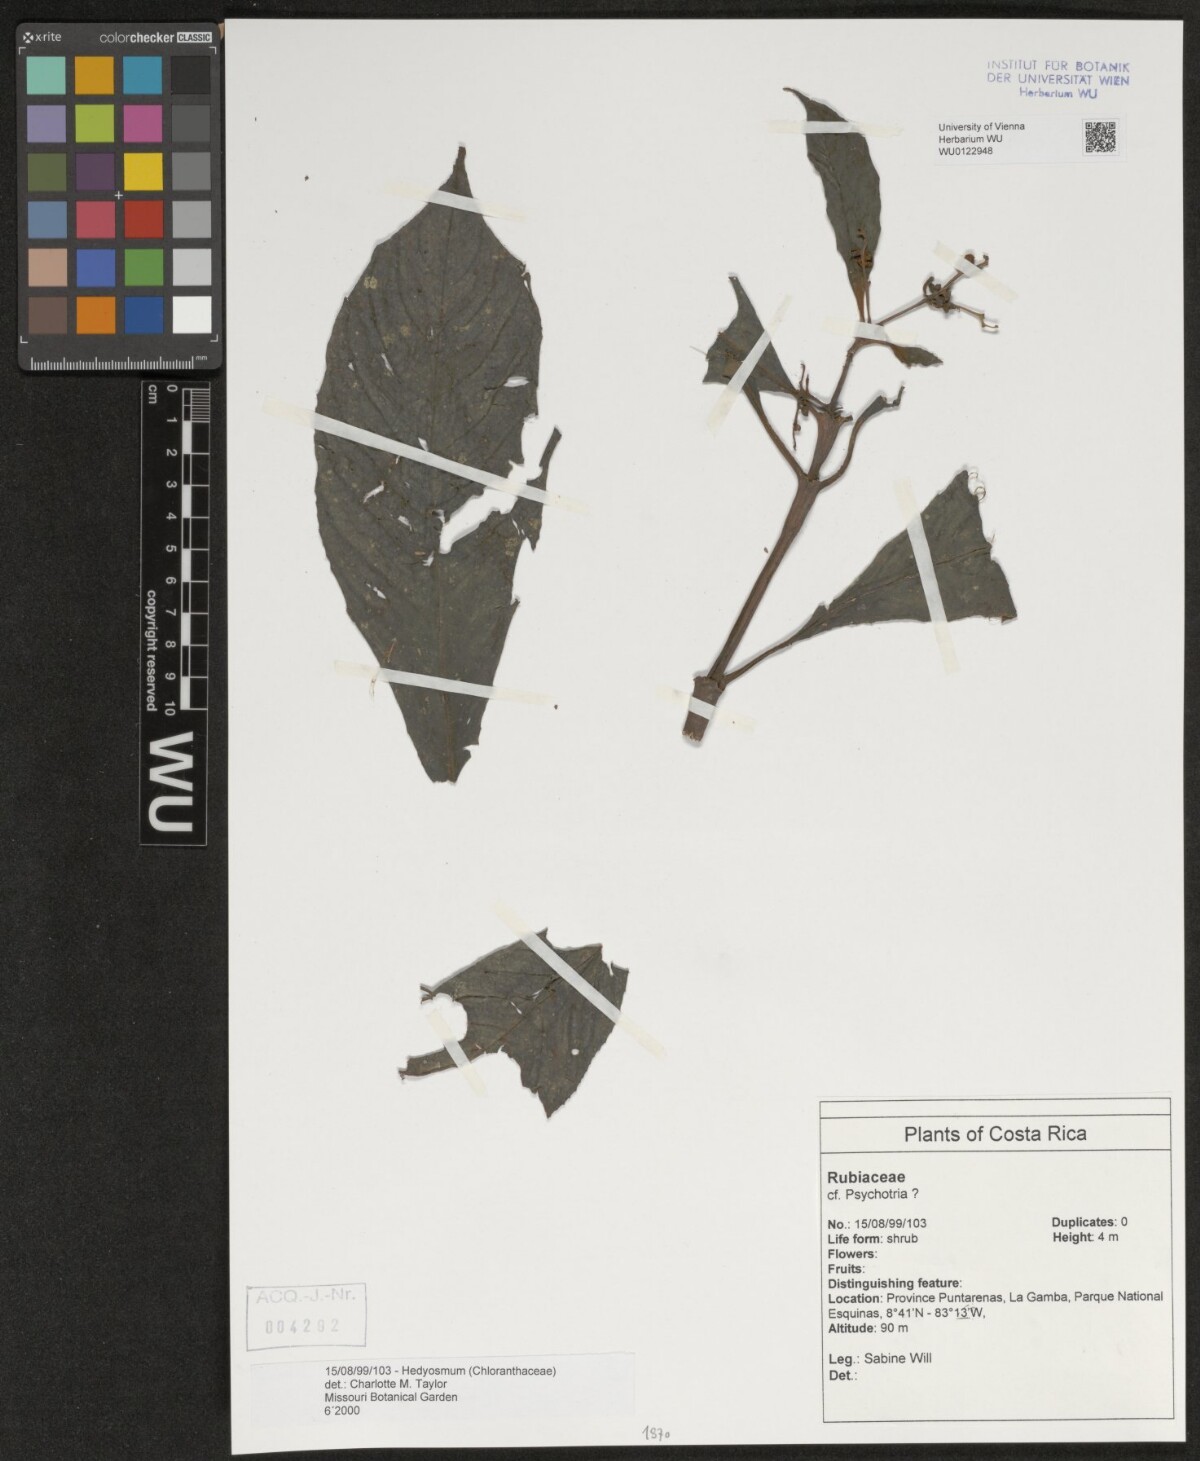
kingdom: Plantae
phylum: Tracheophyta
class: Magnoliopsida
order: Chloranthales
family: Chloranthaceae
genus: Hedyosmum
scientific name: Hedyosmum
